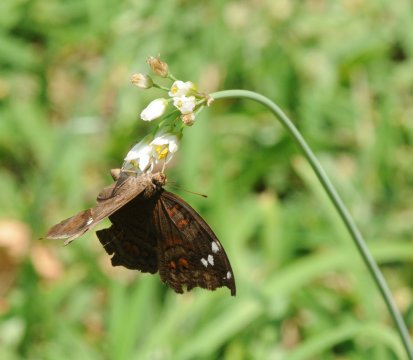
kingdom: Animalia
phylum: Arthropoda
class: Insecta
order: Lepidoptera
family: Nymphalidae
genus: Junonia
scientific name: Junonia natalica
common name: Natal Pansy
